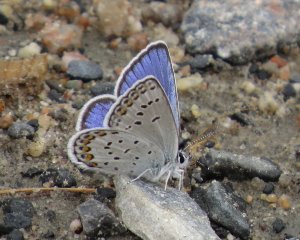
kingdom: Animalia
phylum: Arthropoda
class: Insecta
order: Lepidoptera
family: Lycaenidae
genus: Lycaeides
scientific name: Lycaeides idas
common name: Northern Blue
